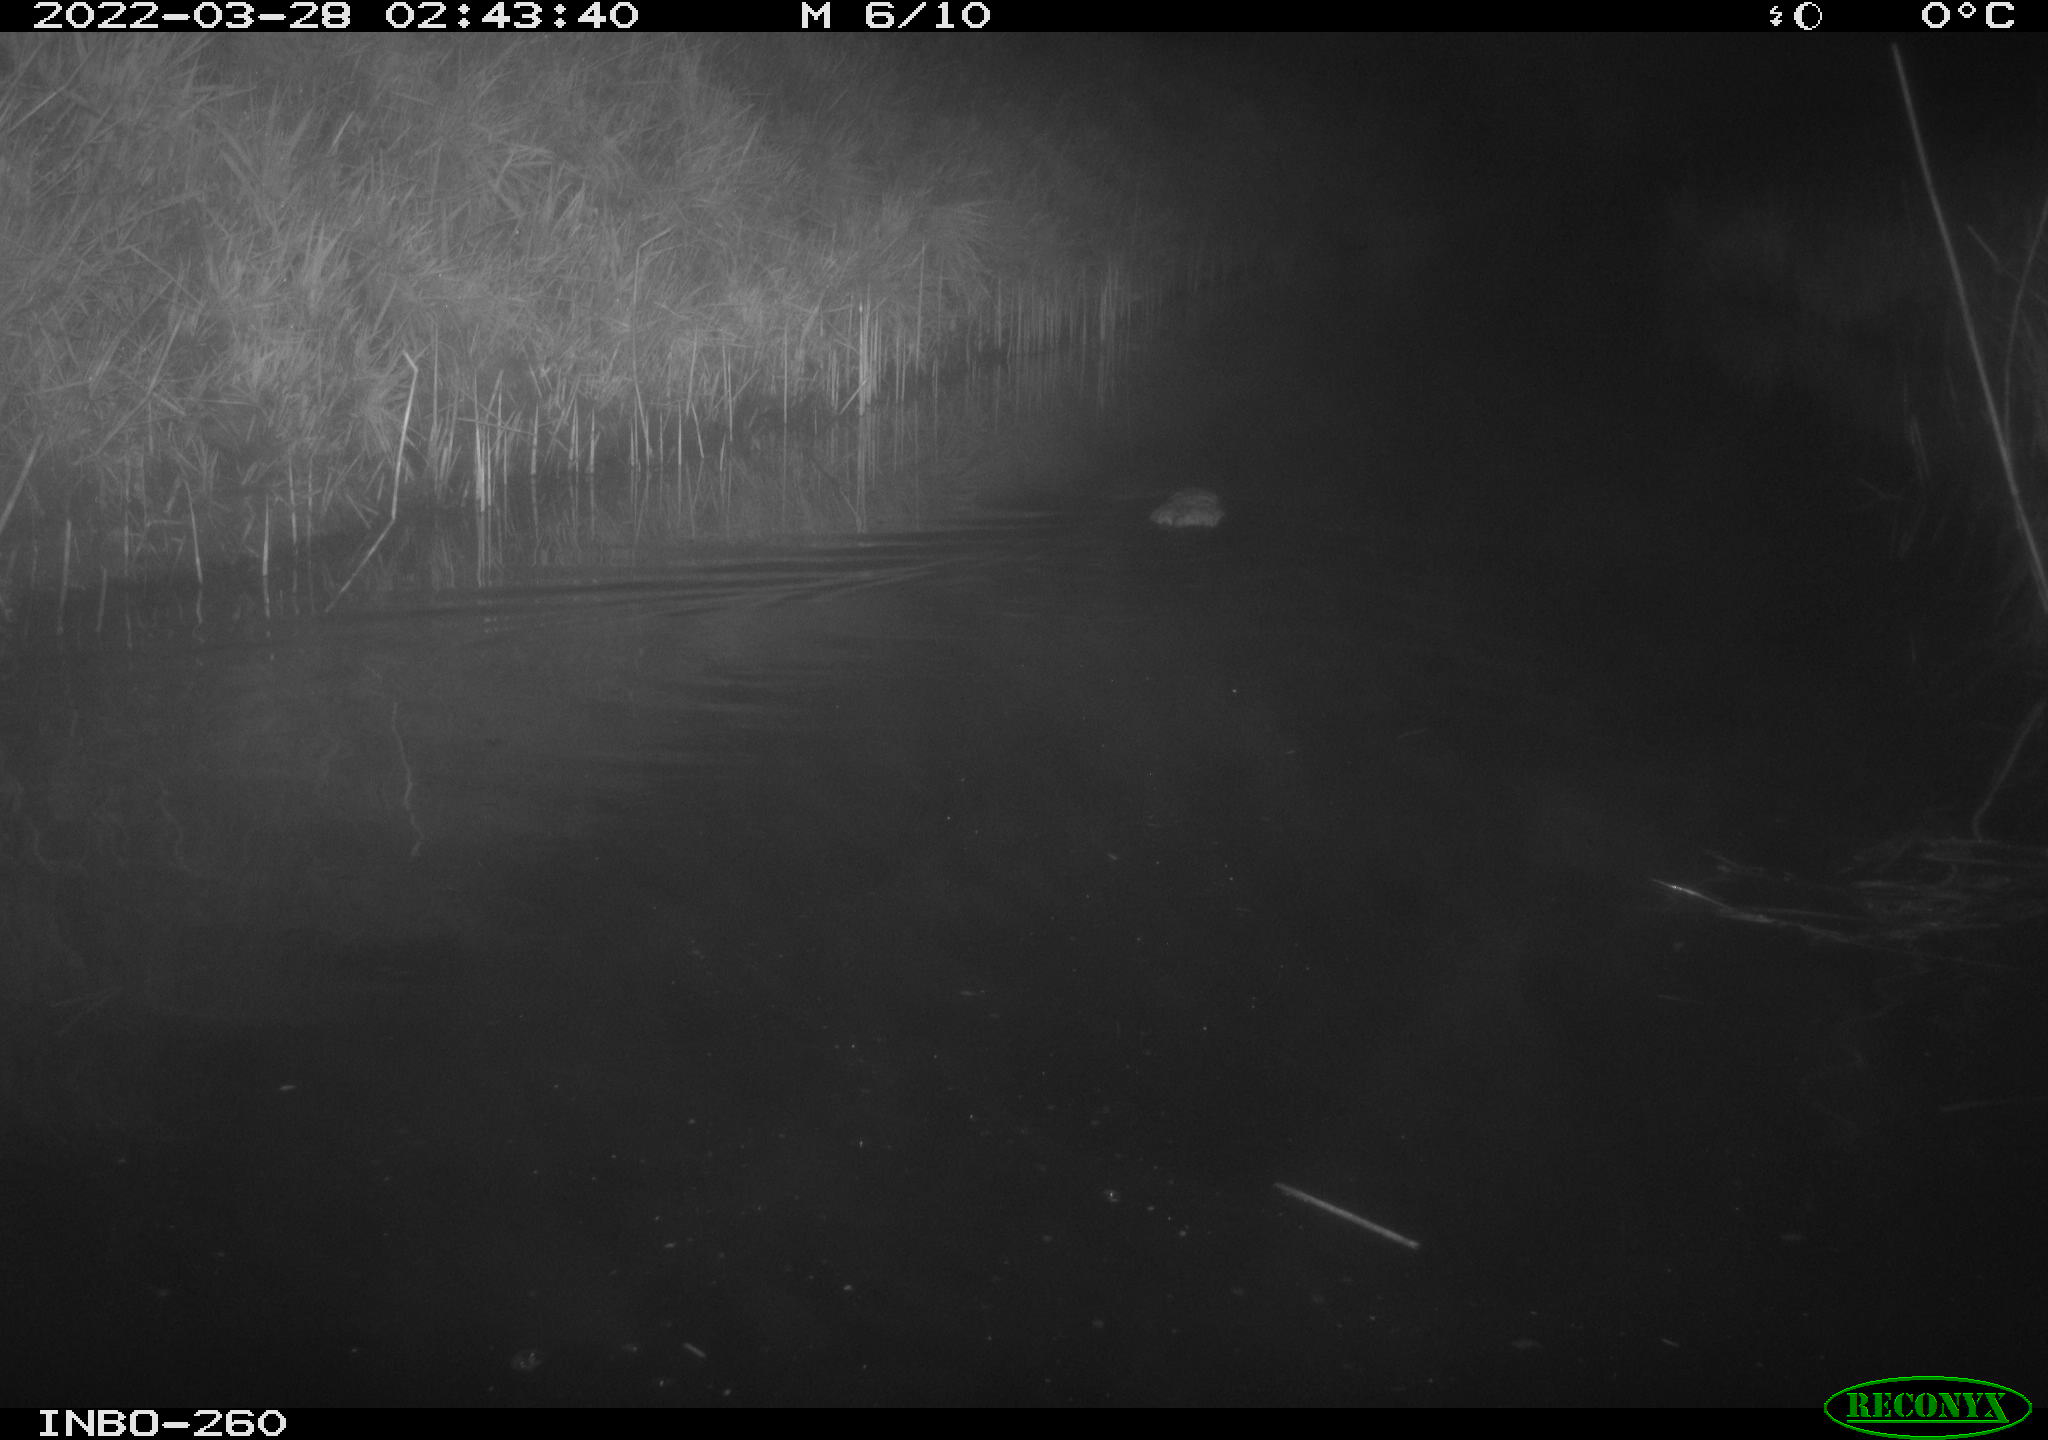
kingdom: Animalia
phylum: Chordata
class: Mammalia
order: Rodentia
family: Cricetidae
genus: Ondatra
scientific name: Ondatra zibethicus
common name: Muskrat
